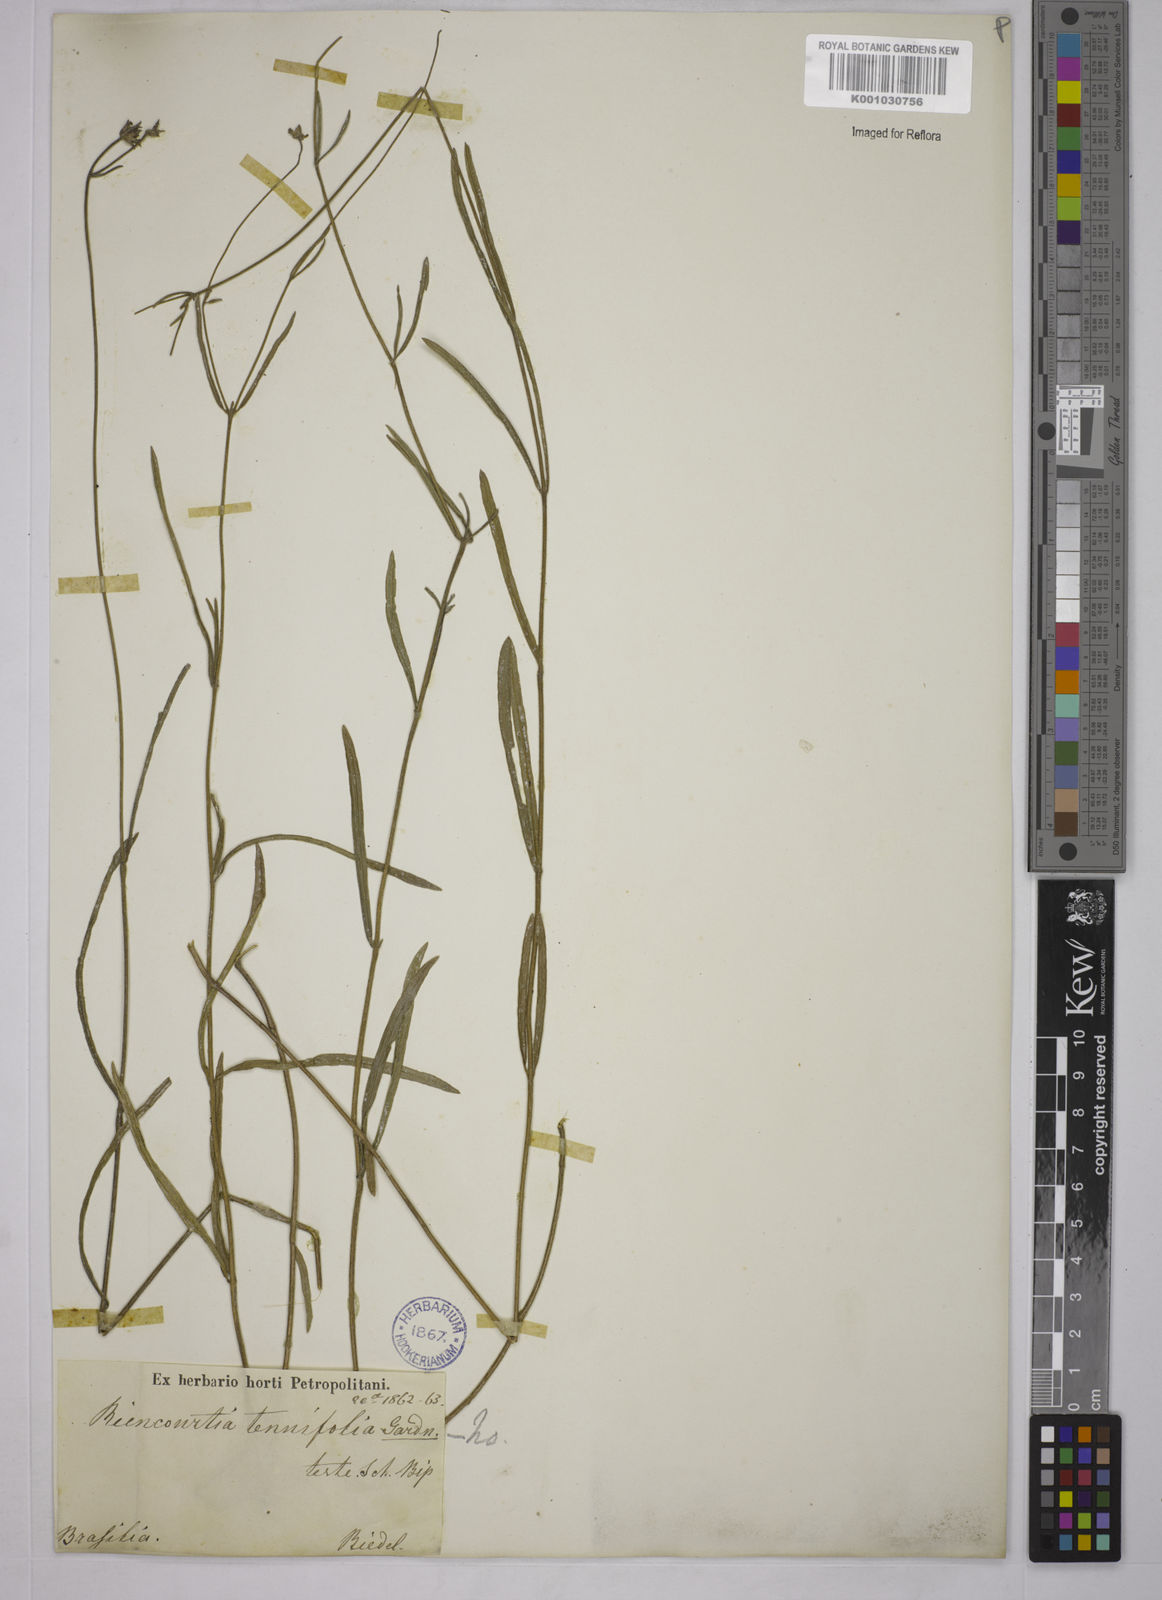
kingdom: Plantae
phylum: Tracheophyta
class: Magnoliopsida
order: Asterales
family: Asteraceae
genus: Riencourtia
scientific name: Riencourtia oblongifolia
